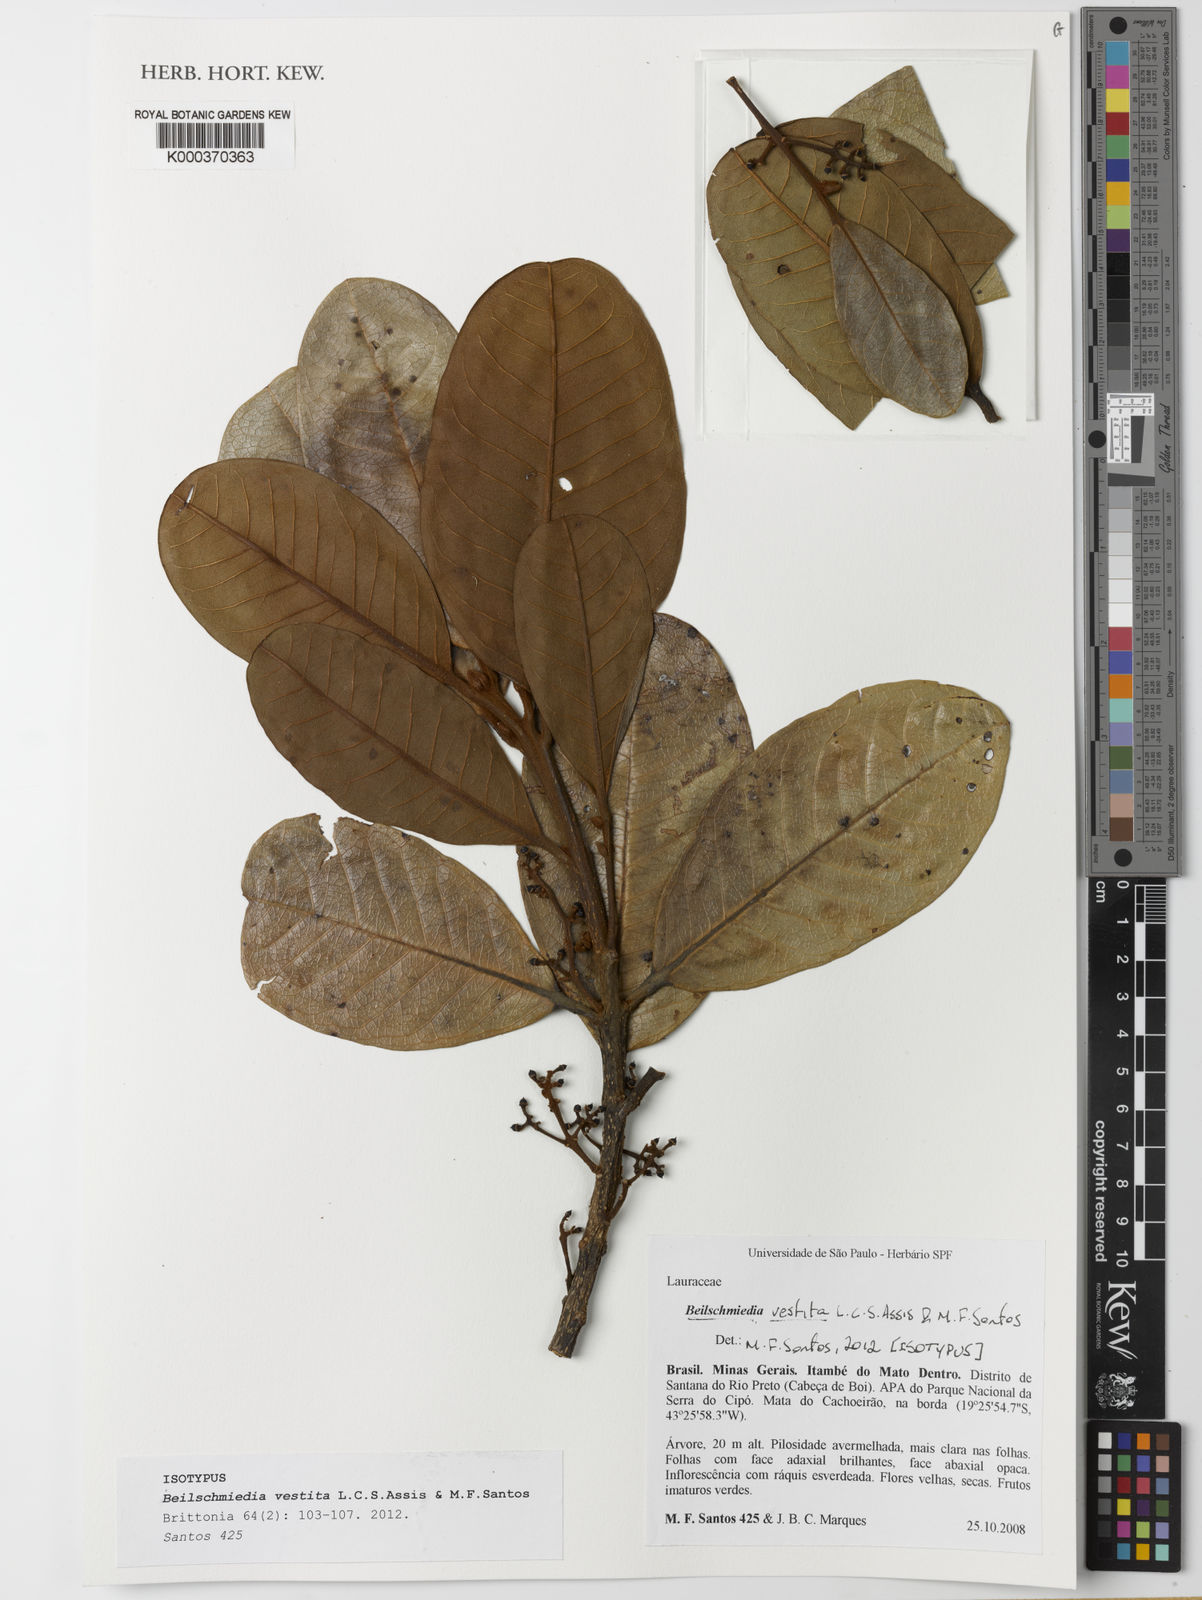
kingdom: Plantae
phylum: Tracheophyta
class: Magnoliopsida
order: Laurales
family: Lauraceae
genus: Beilschmiedia
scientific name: Beilschmiedia vestita
